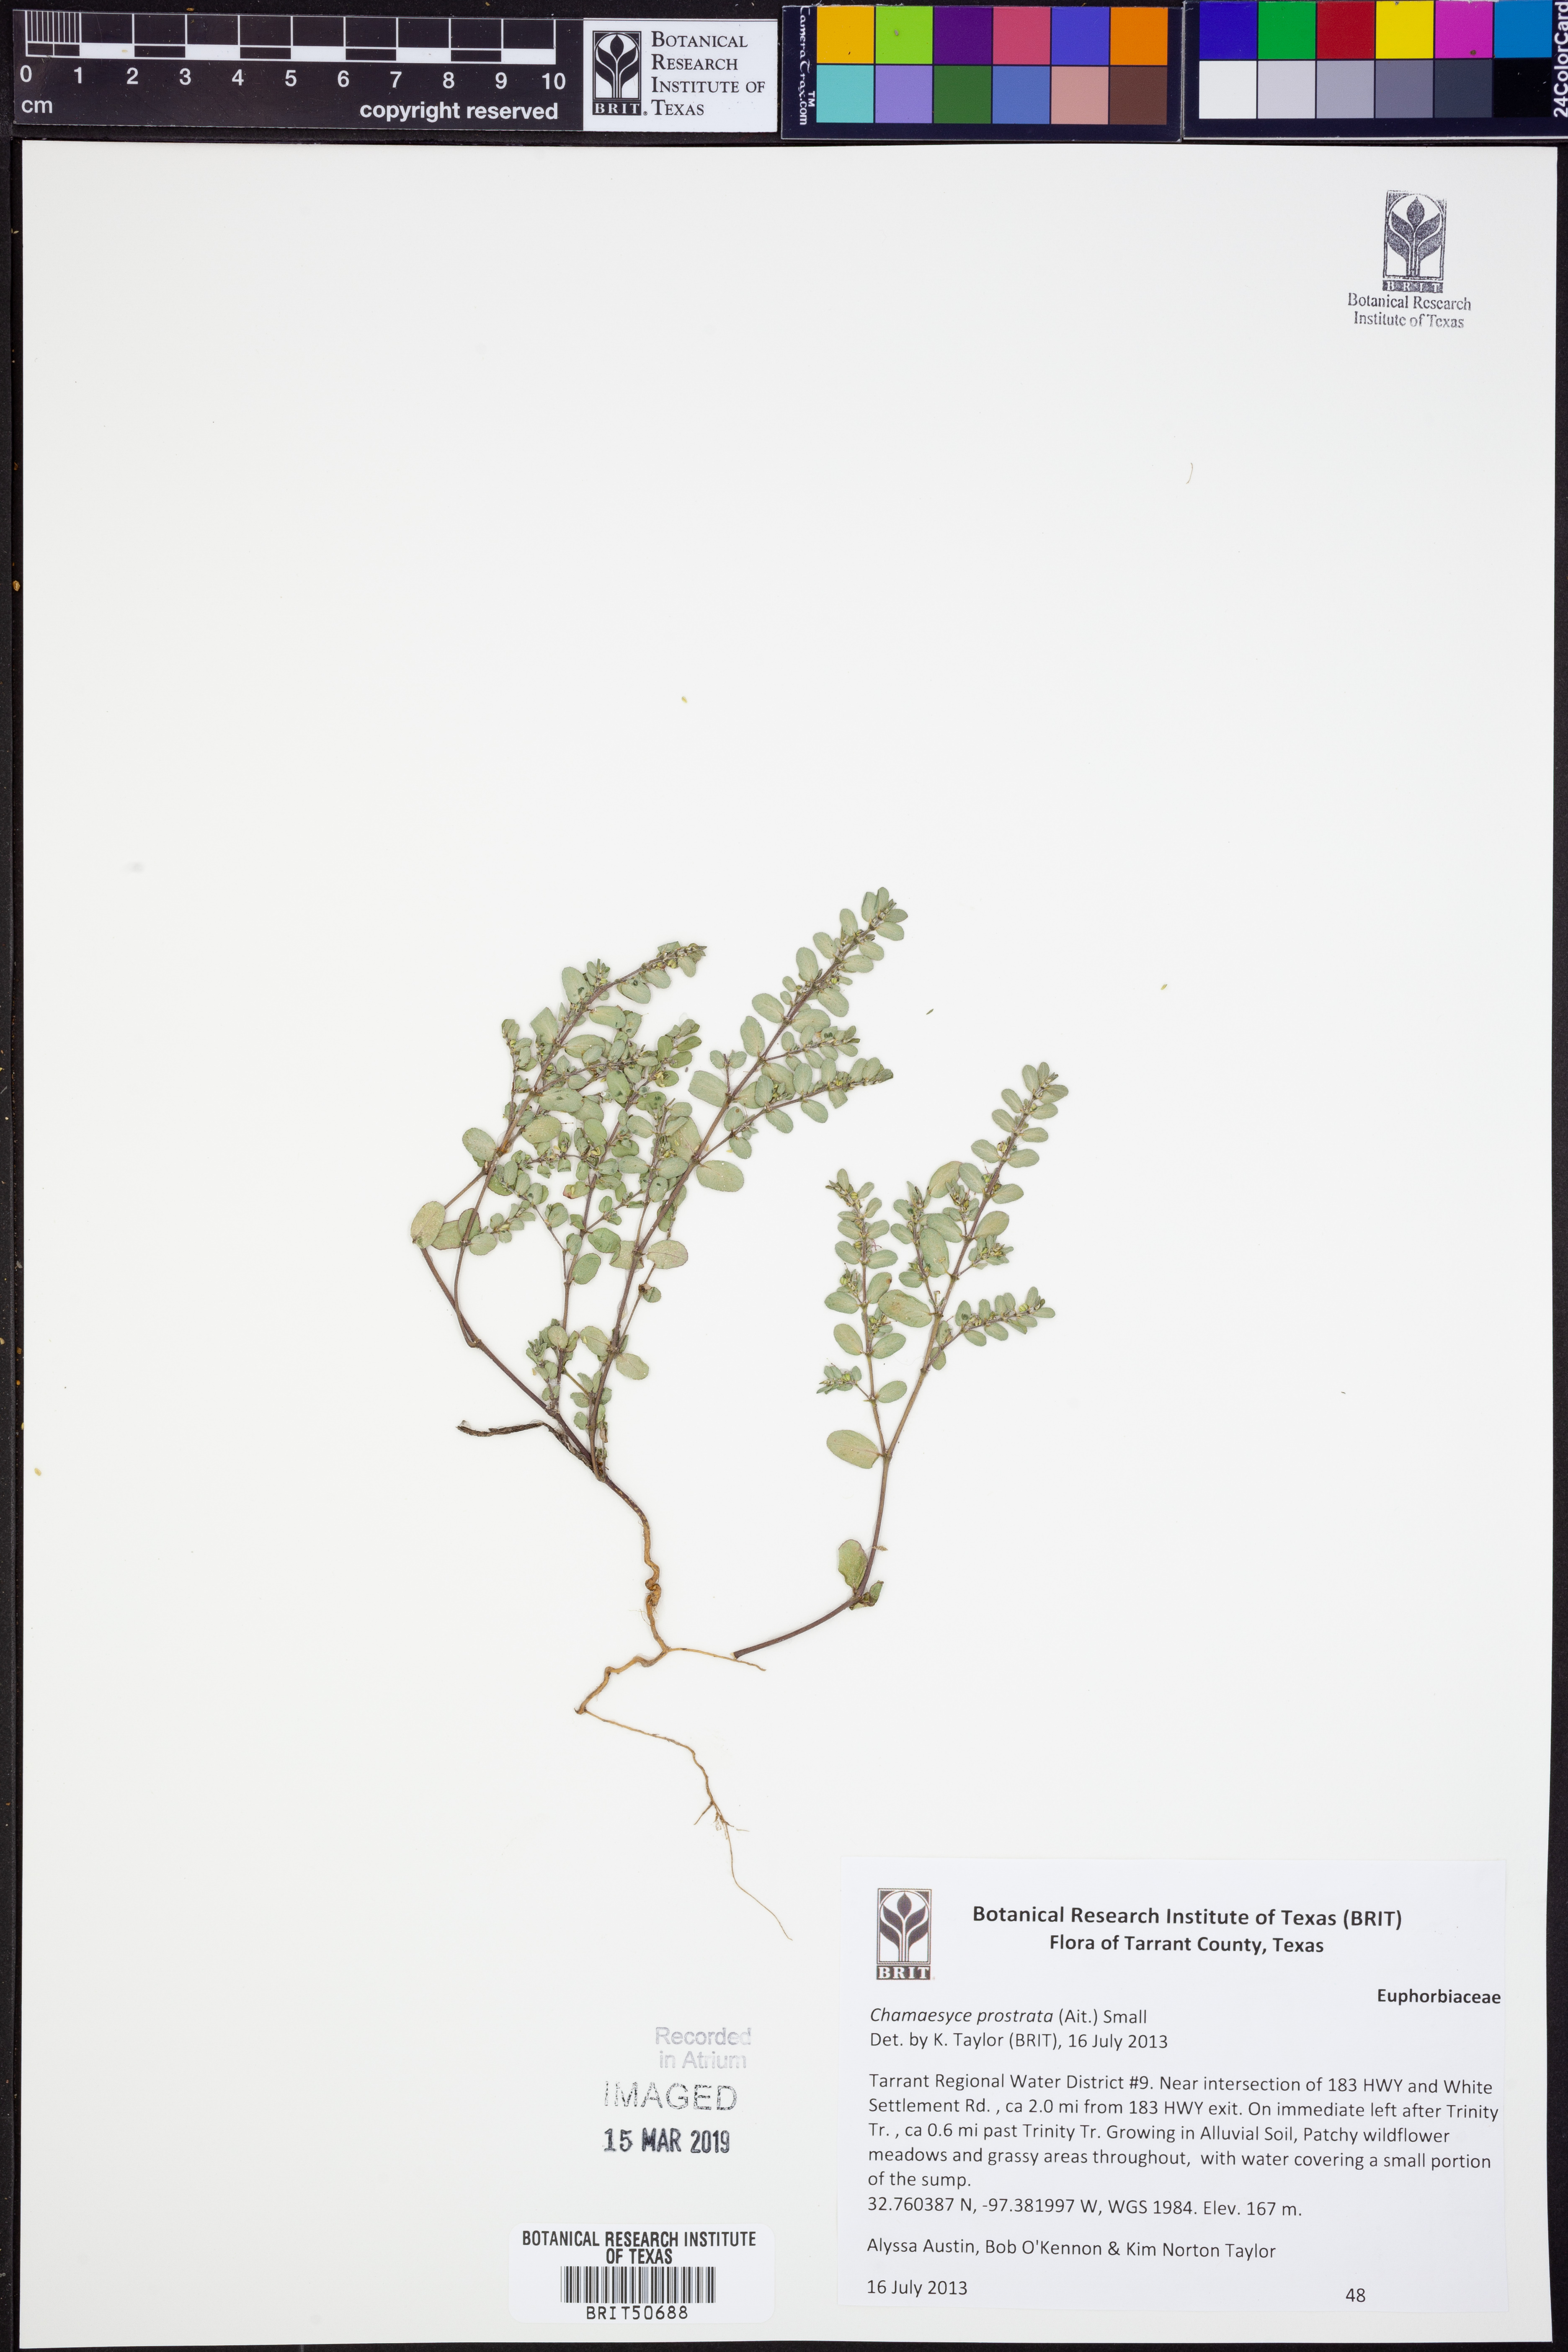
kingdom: Plantae
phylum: Tracheophyta
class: Magnoliopsida
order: Malpighiales
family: Euphorbiaceae
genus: Euphorbia
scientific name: Euphorbia prostrata
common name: Prostrate sandmat
